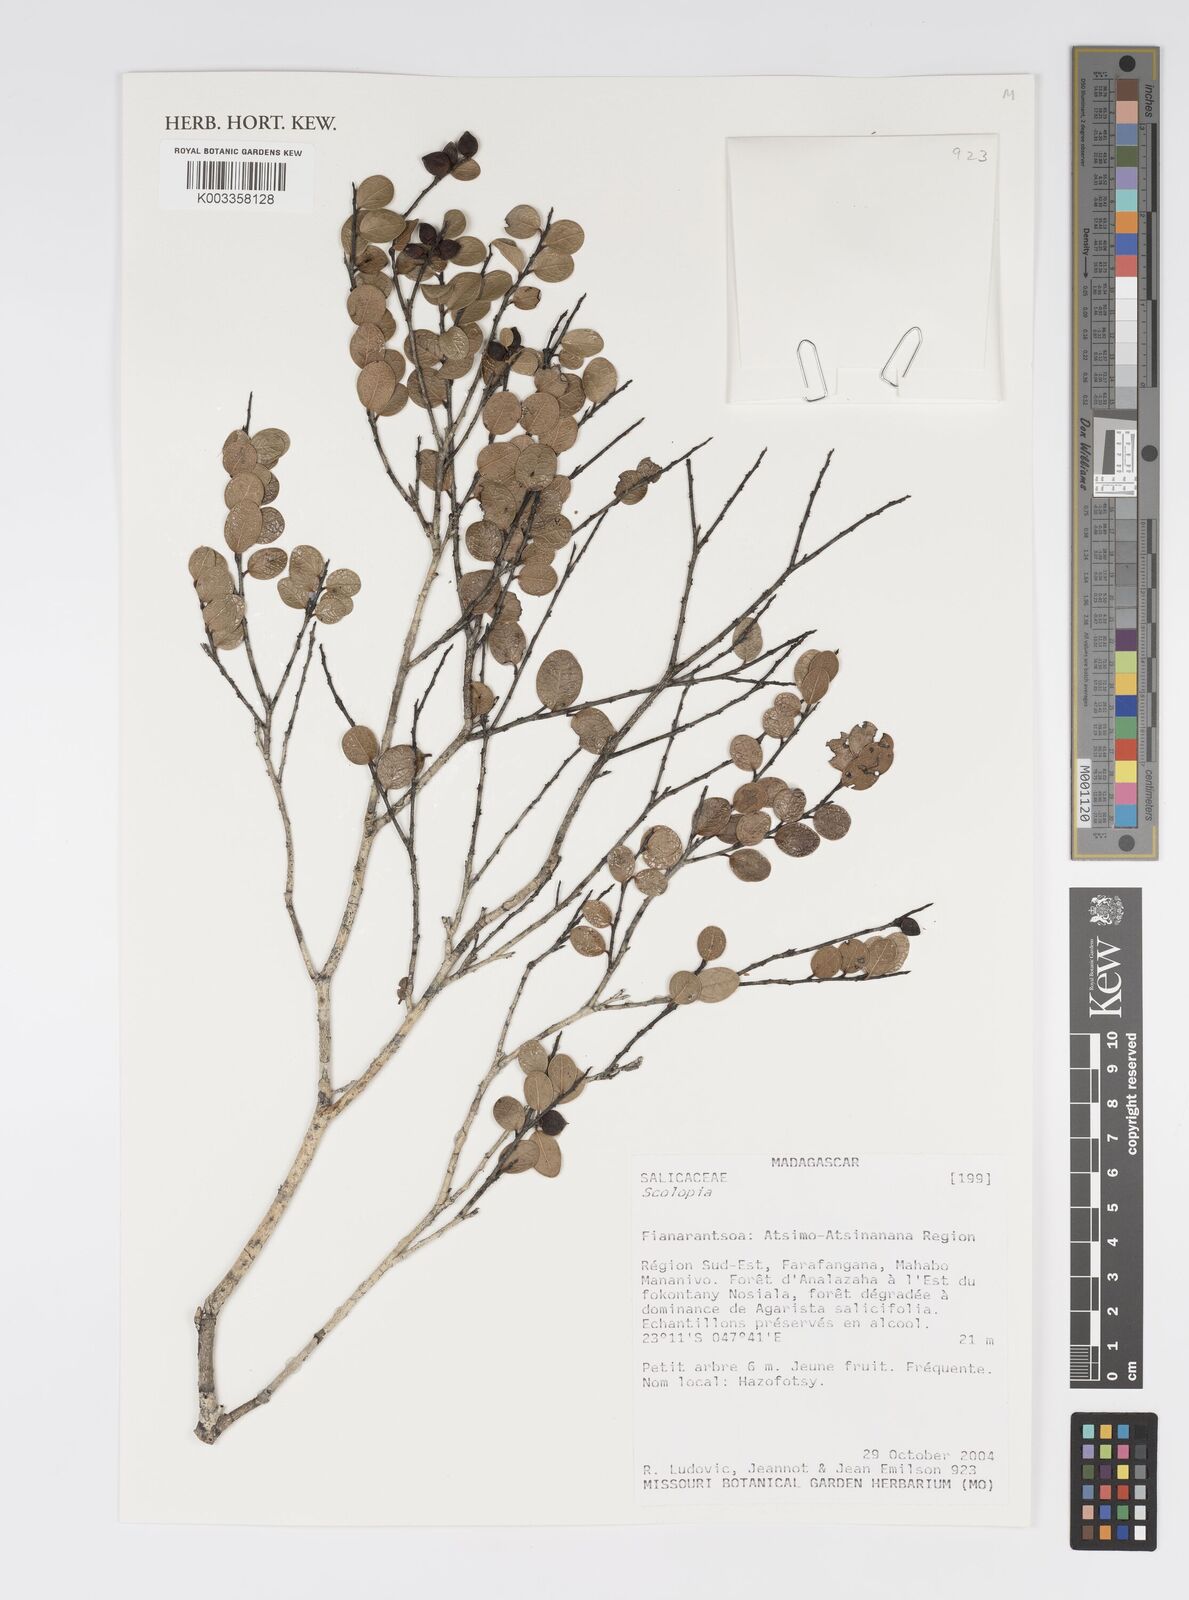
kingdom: Plantae
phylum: Tracheophyta
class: Magnoliopsida
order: Malpighiales
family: Salicaceae
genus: Scolopia
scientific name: Scolopia
